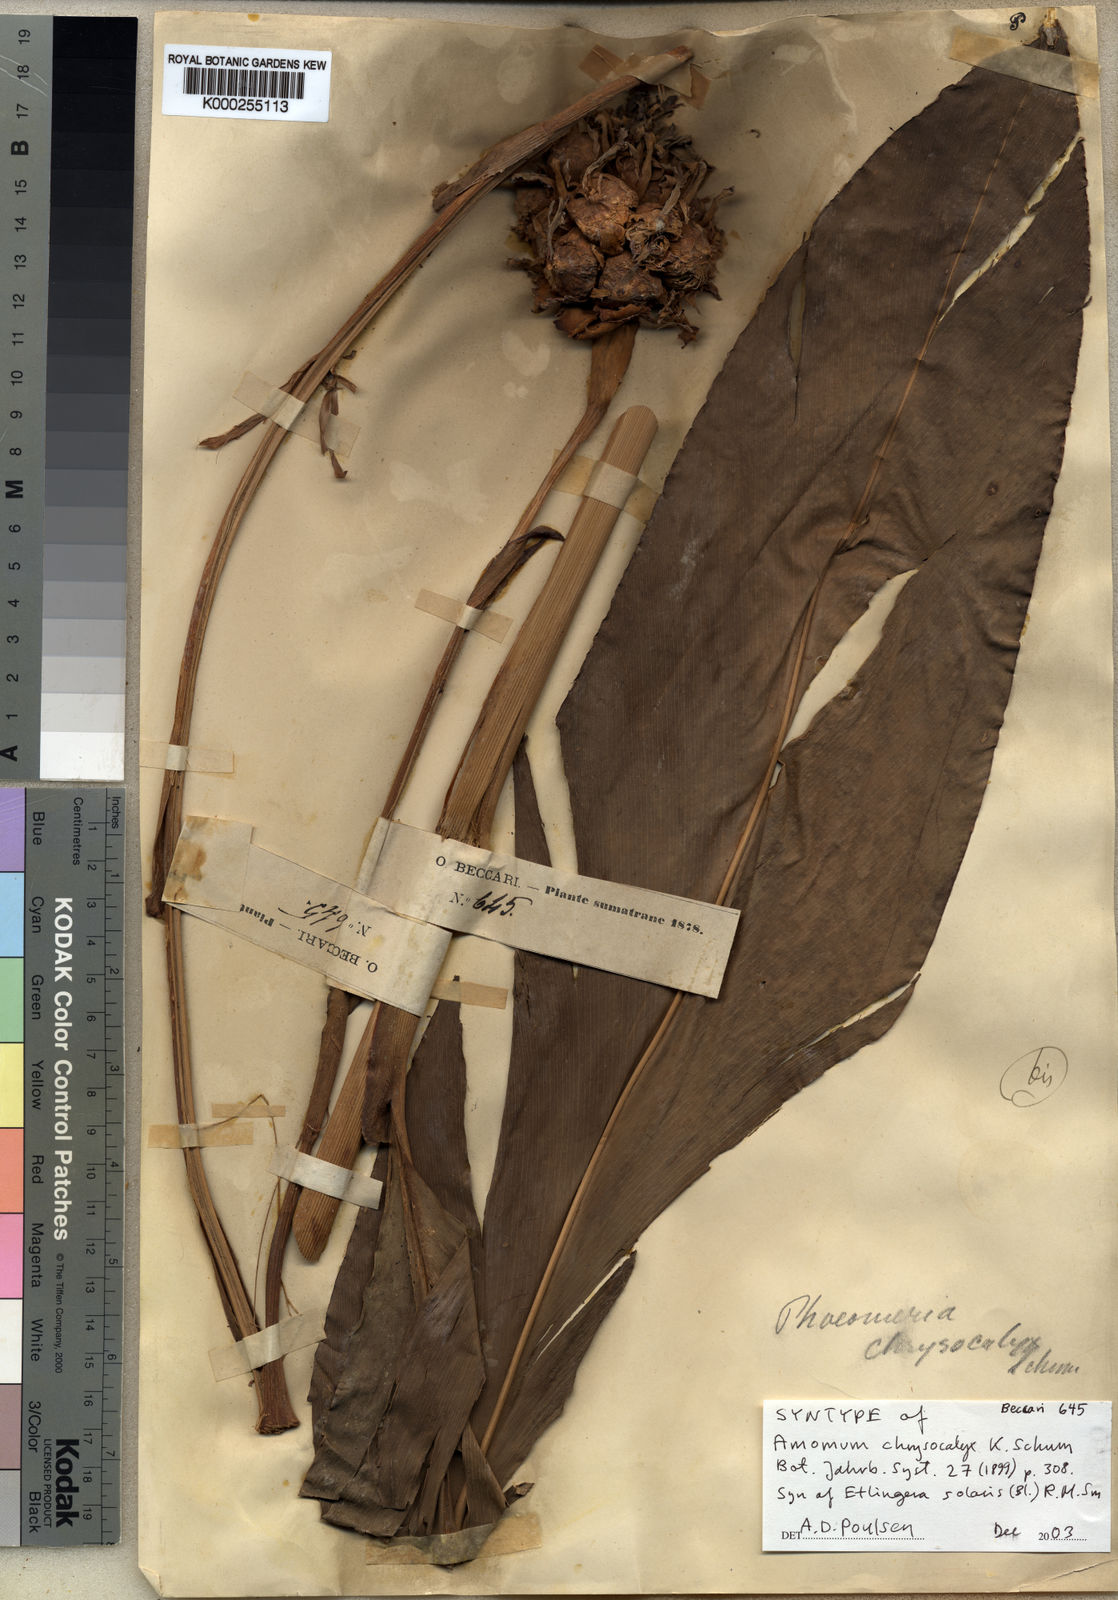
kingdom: Plantae
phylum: Tracheophyta
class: Liliopsida
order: Zingiberales
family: Zingiberaceae
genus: Etlingera
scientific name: Etlingera solaris
